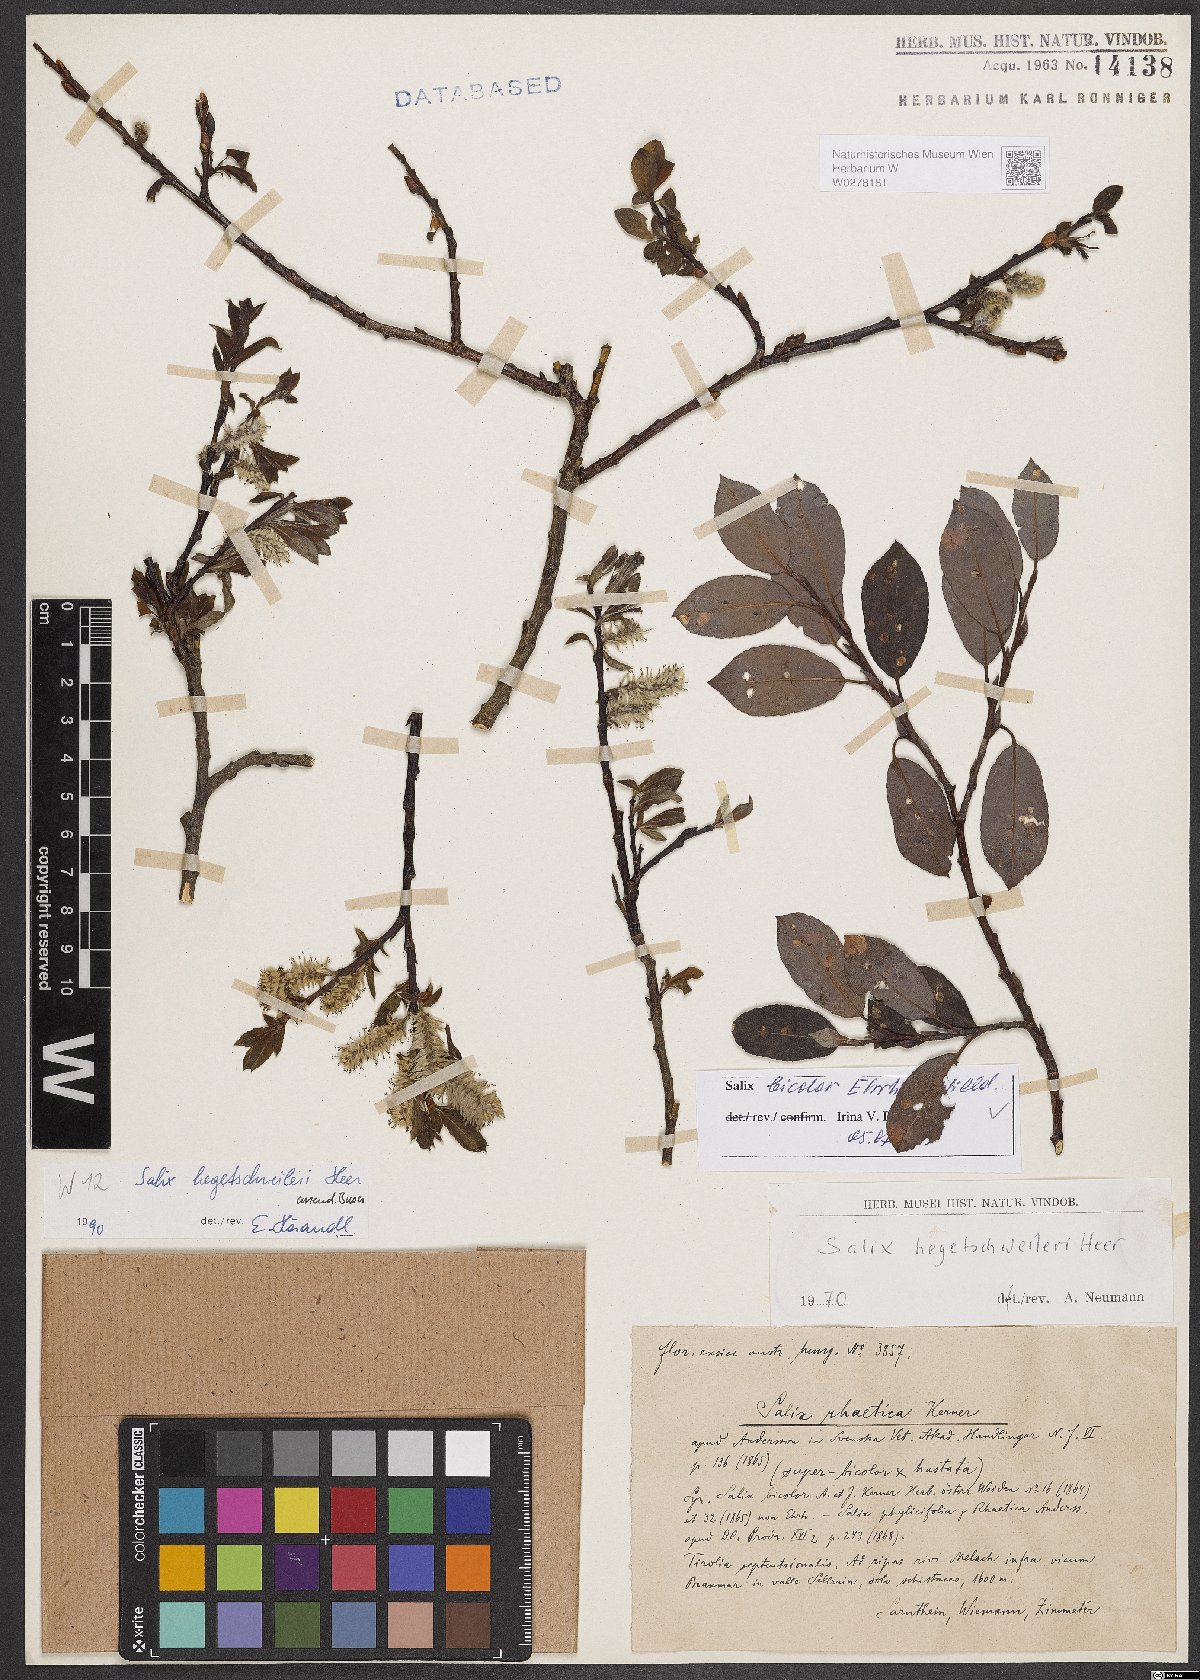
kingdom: Plantae
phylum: Tracheophyta
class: Magnoliopsida
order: Malpighiales
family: Salicaceae
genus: Salix
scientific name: Salix bicolor
